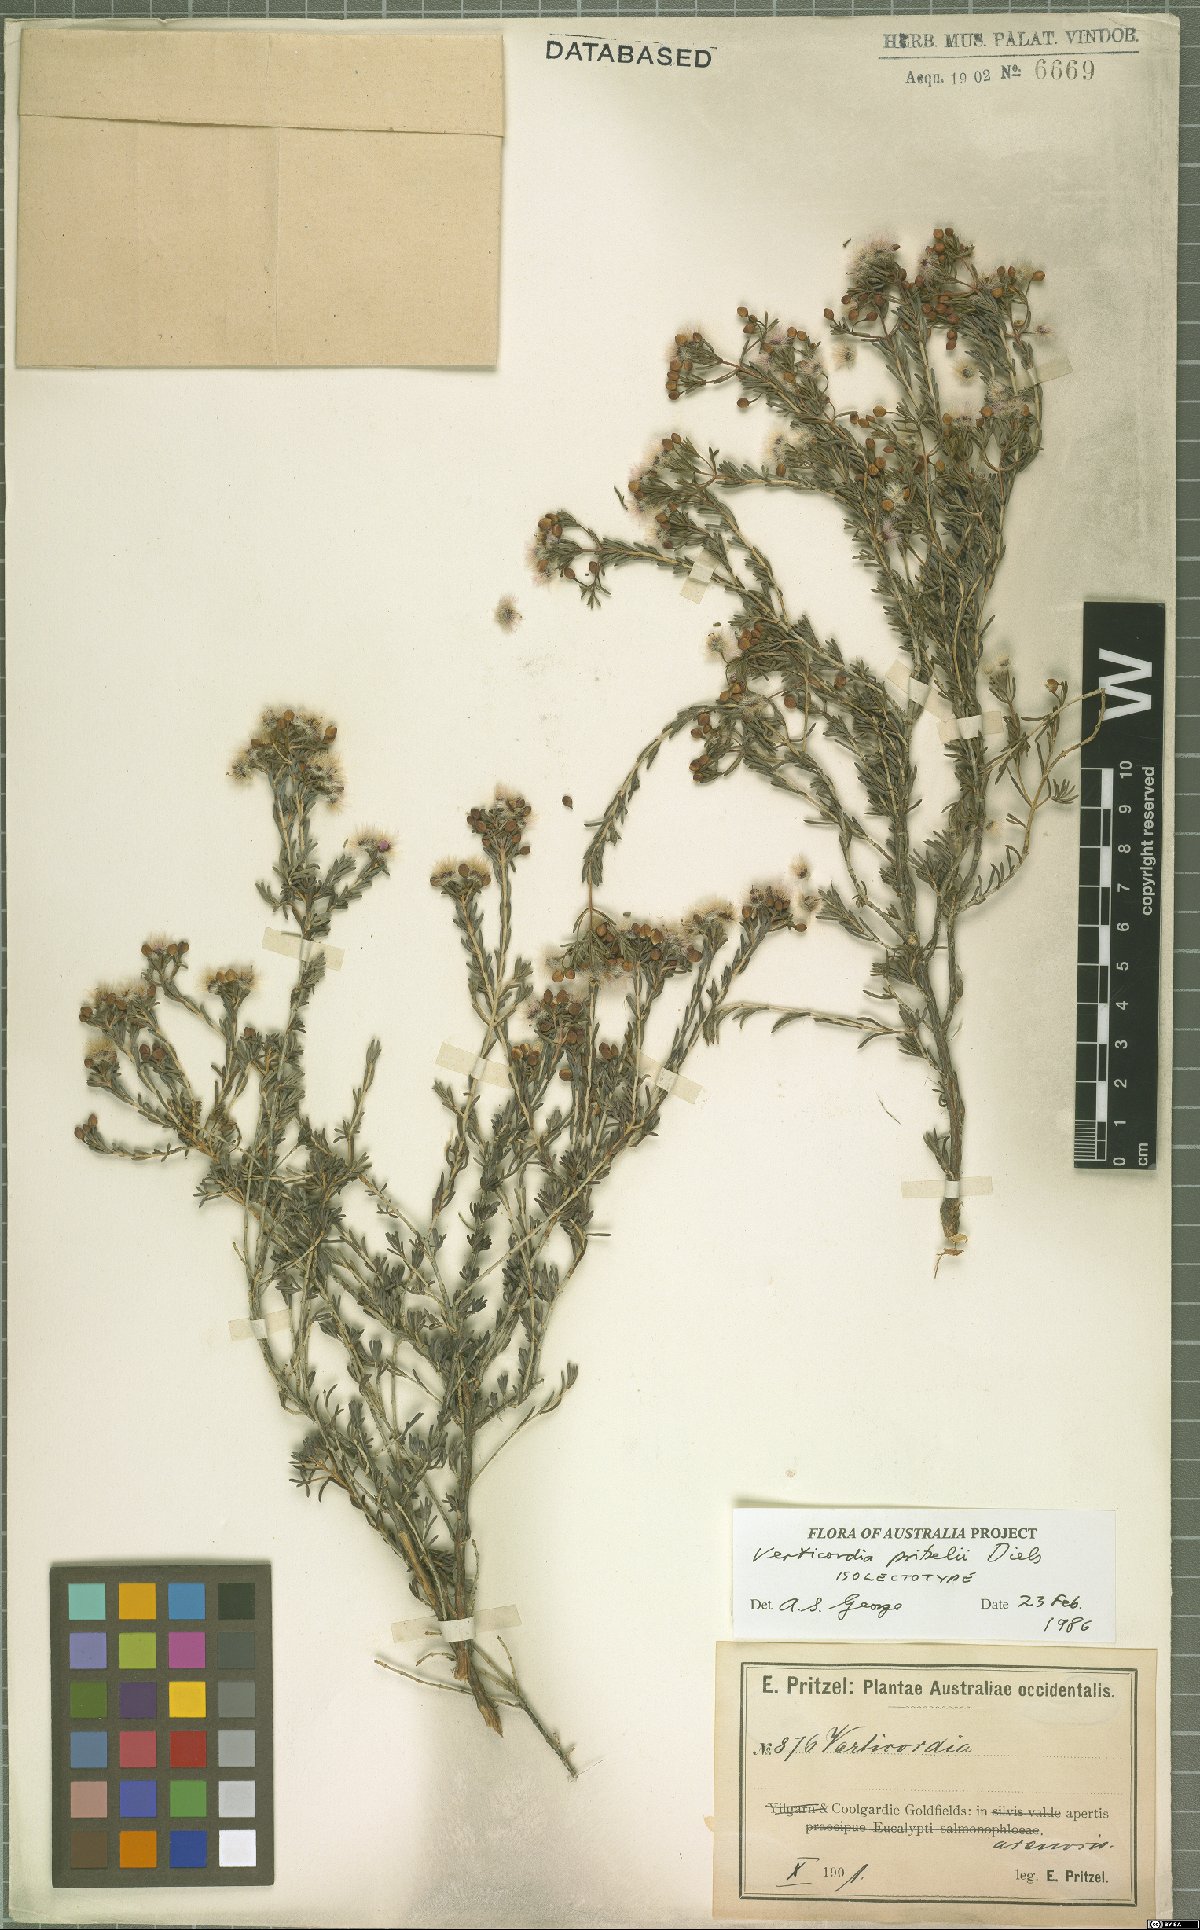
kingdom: Plantae
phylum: Tracheophyta
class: Magnoliopsida
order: Myrtales
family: Myrtaceae
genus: Verticordia
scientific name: Verticordia pritzelii
